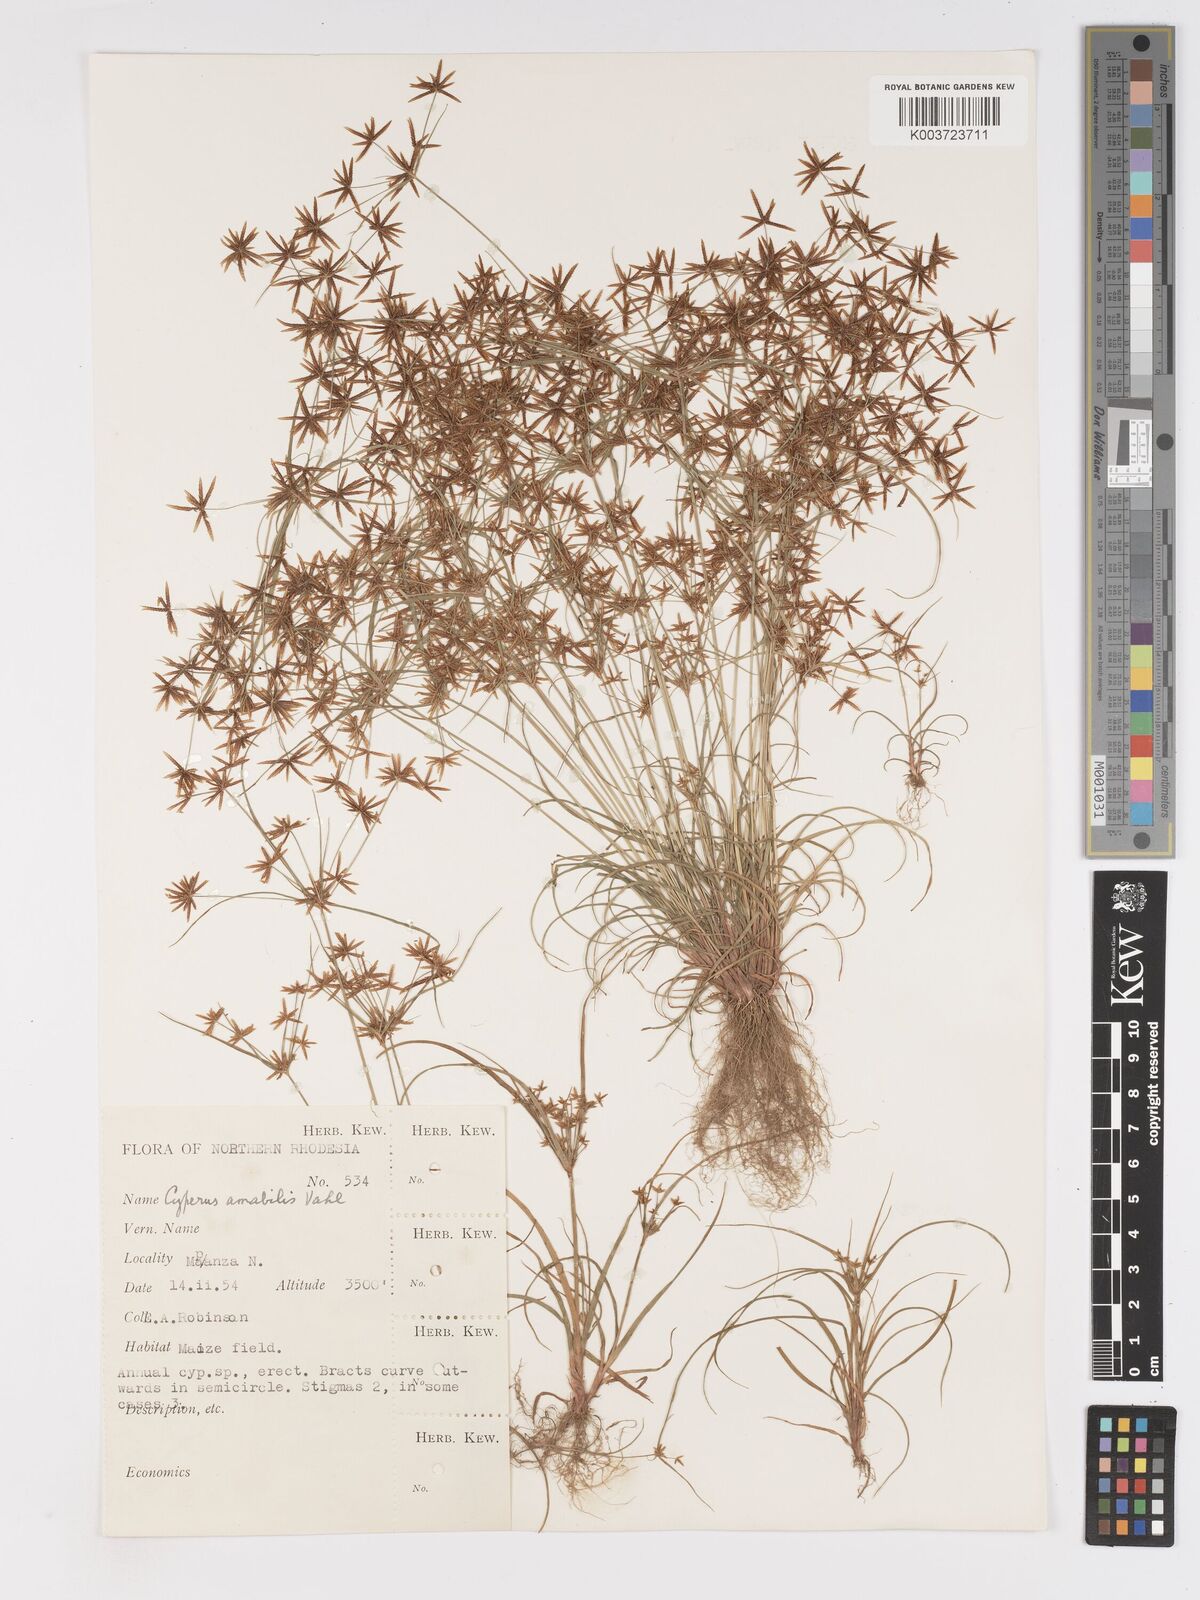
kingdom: Plantae
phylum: Tracheophyta
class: Liliopsida
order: Poales
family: Cyperaceae
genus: Cyperus
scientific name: Cyperus amabilis
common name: Foothill flat sedge
